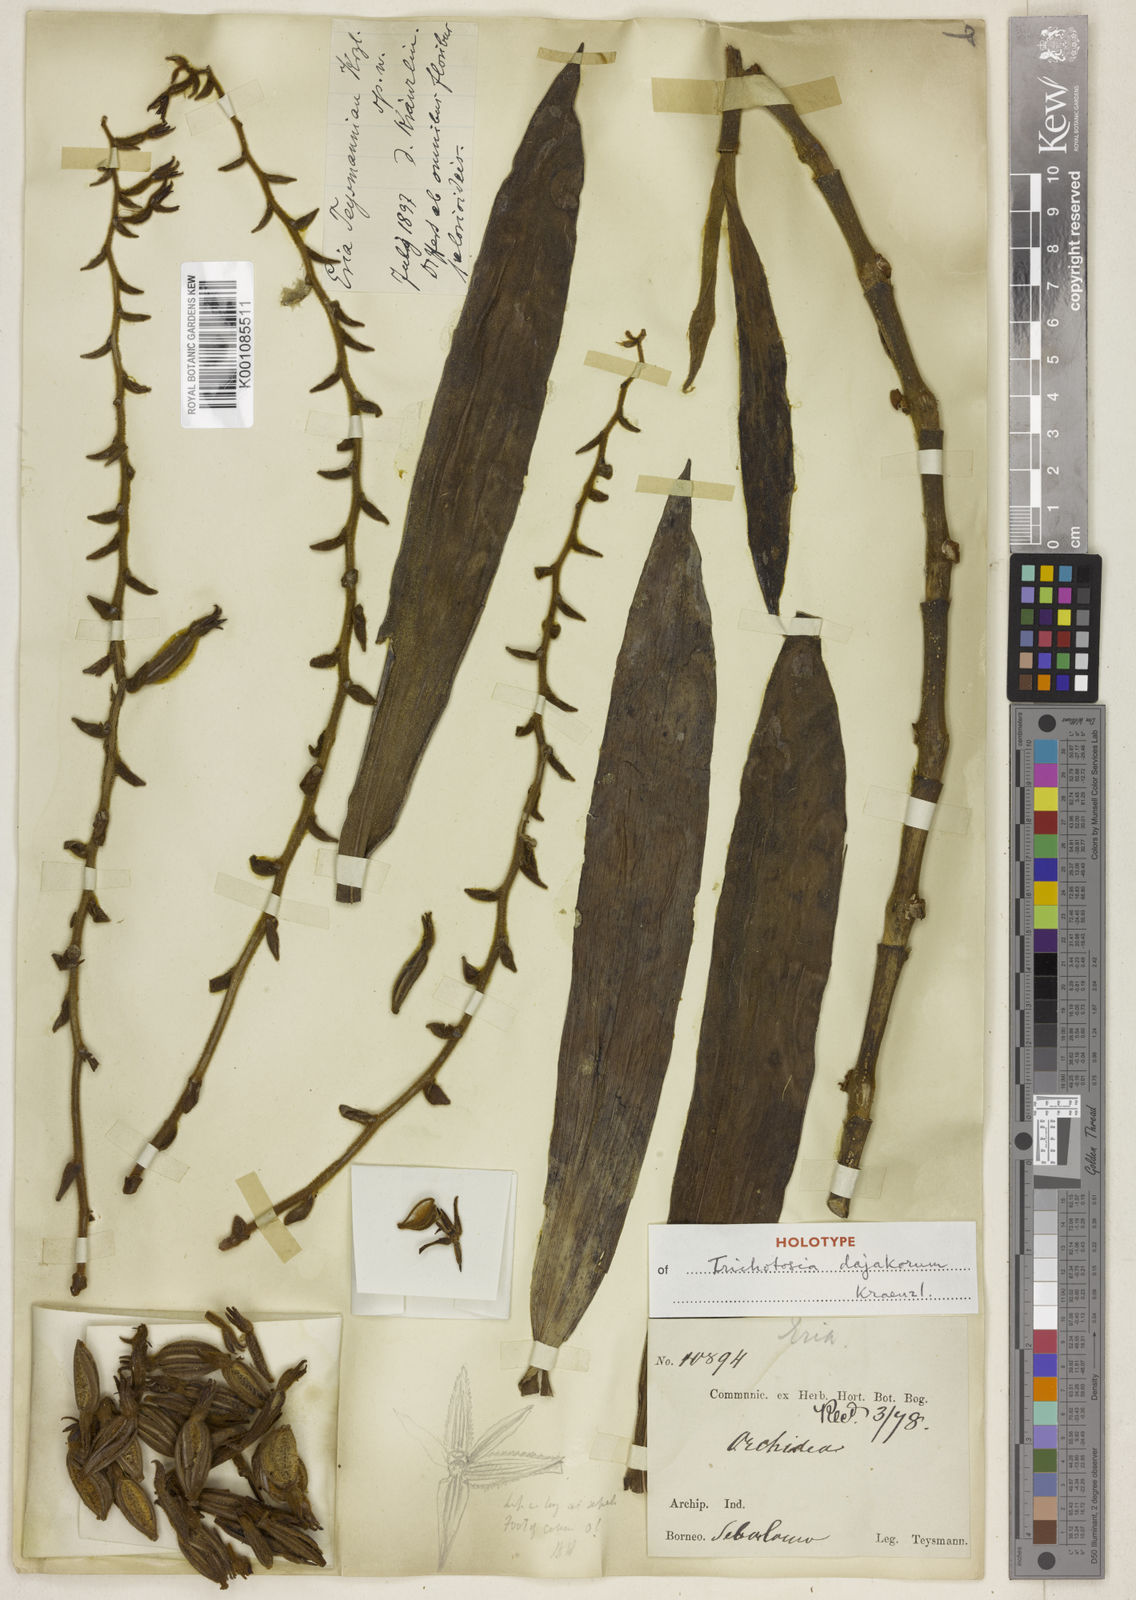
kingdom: Plantae
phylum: Tracheophyta
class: Liliopsida
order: Asparagales
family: Orchidaceae
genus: Trichotosia
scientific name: Trichotosia teysmannii
